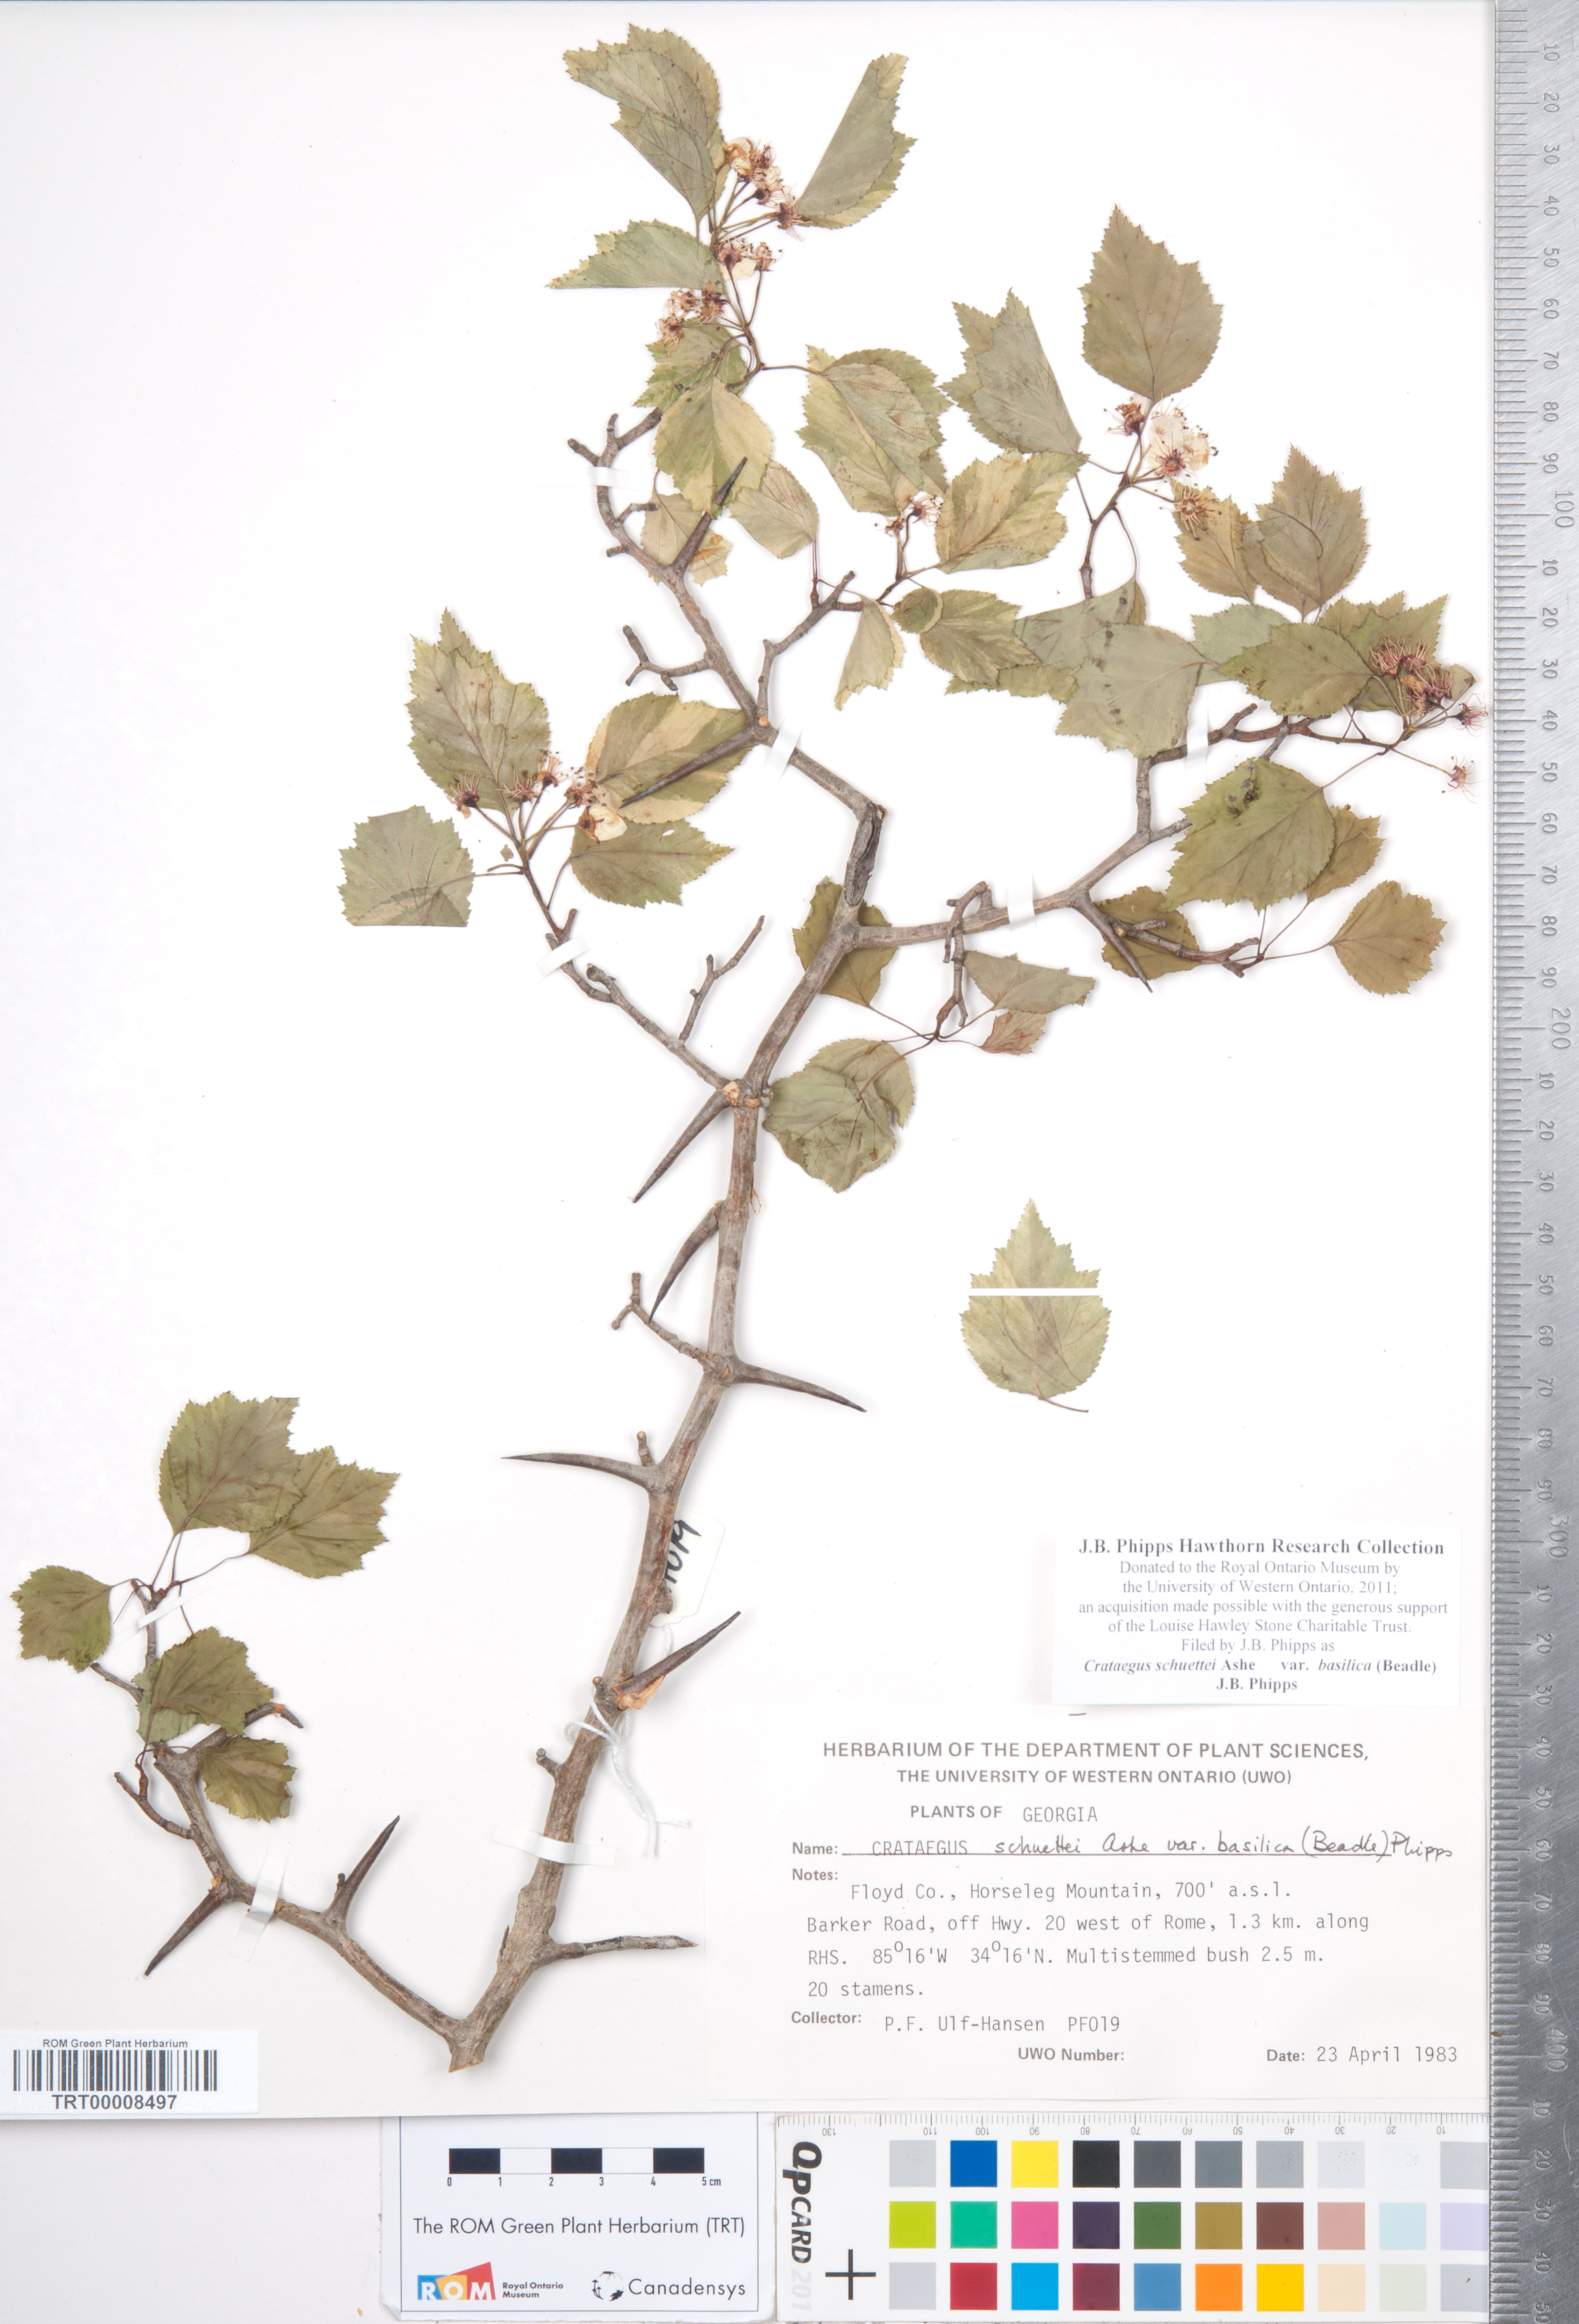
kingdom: Plantae
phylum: Tracheophyta
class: Magnoliopsida
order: Rosales
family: Rosaceae
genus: Crataegus
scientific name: Crataegus schuettei
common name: Schuette's hawthorn
